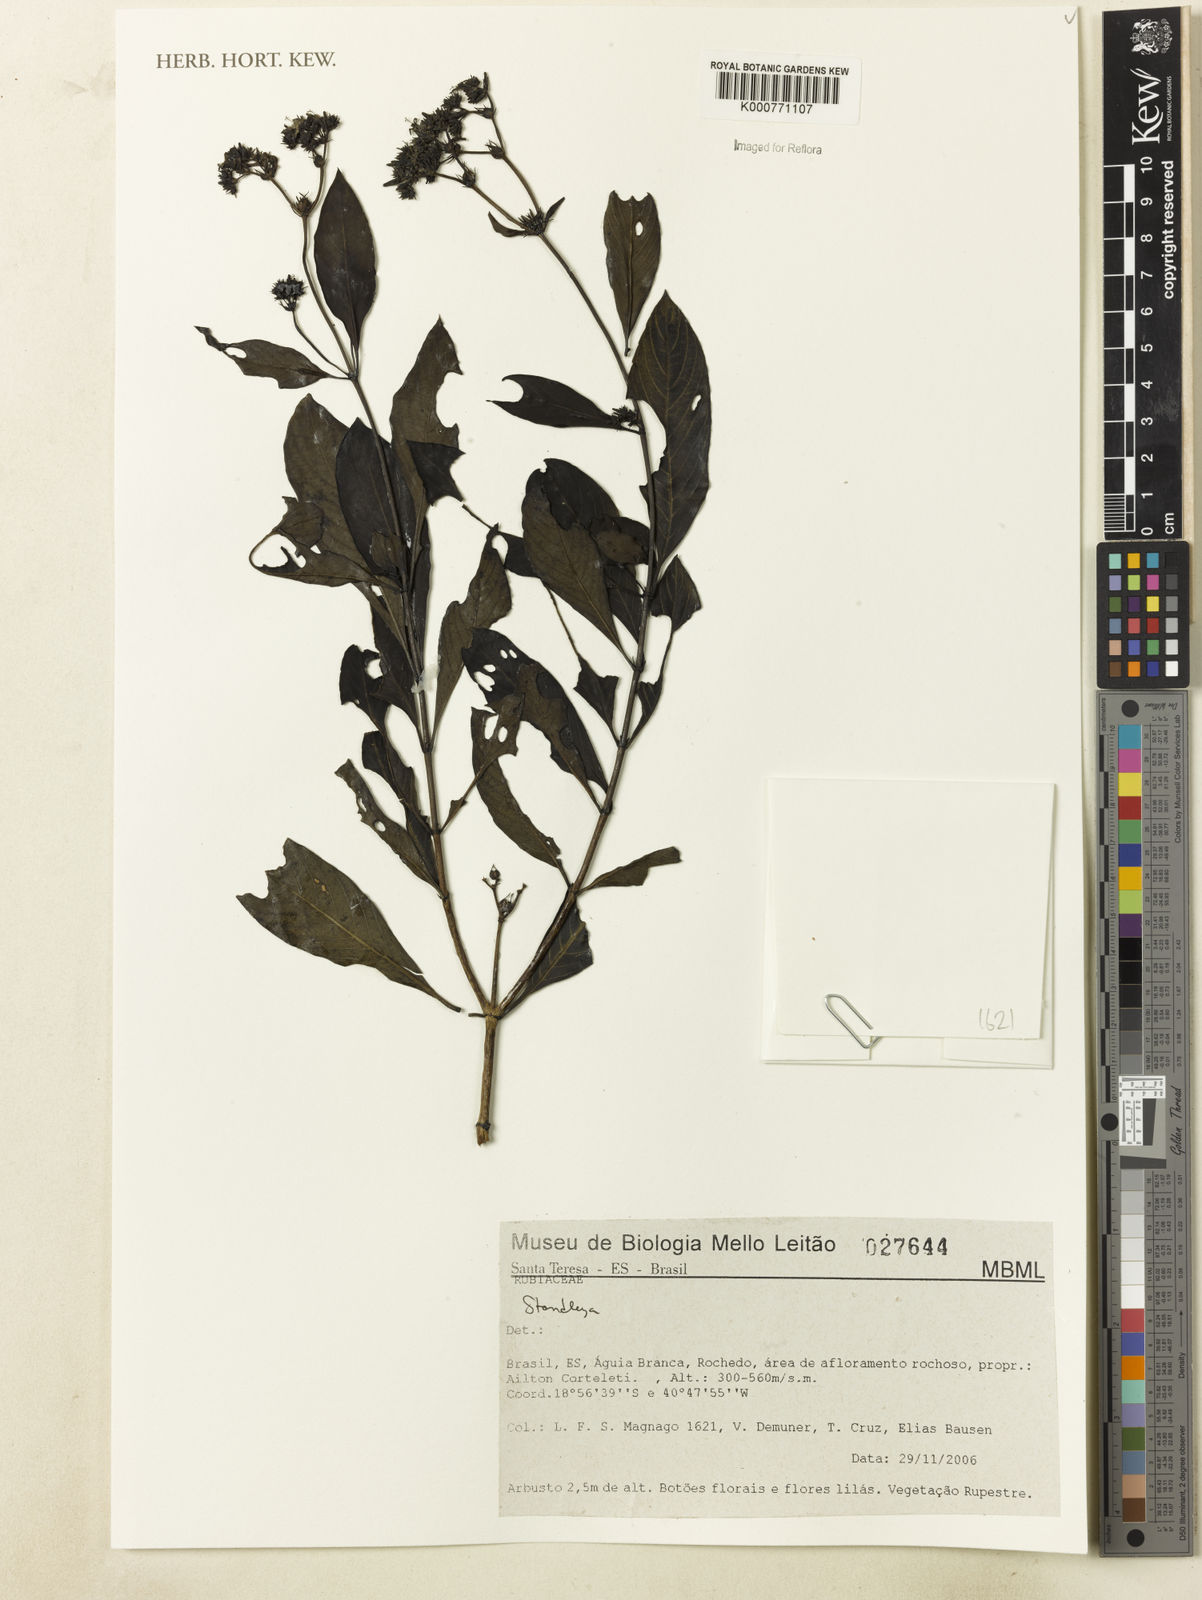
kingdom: Plantae
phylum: Tracheophyta
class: Magnoliopsida
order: Gentianales
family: Rubiaceae
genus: Standleya
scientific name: Standleya
